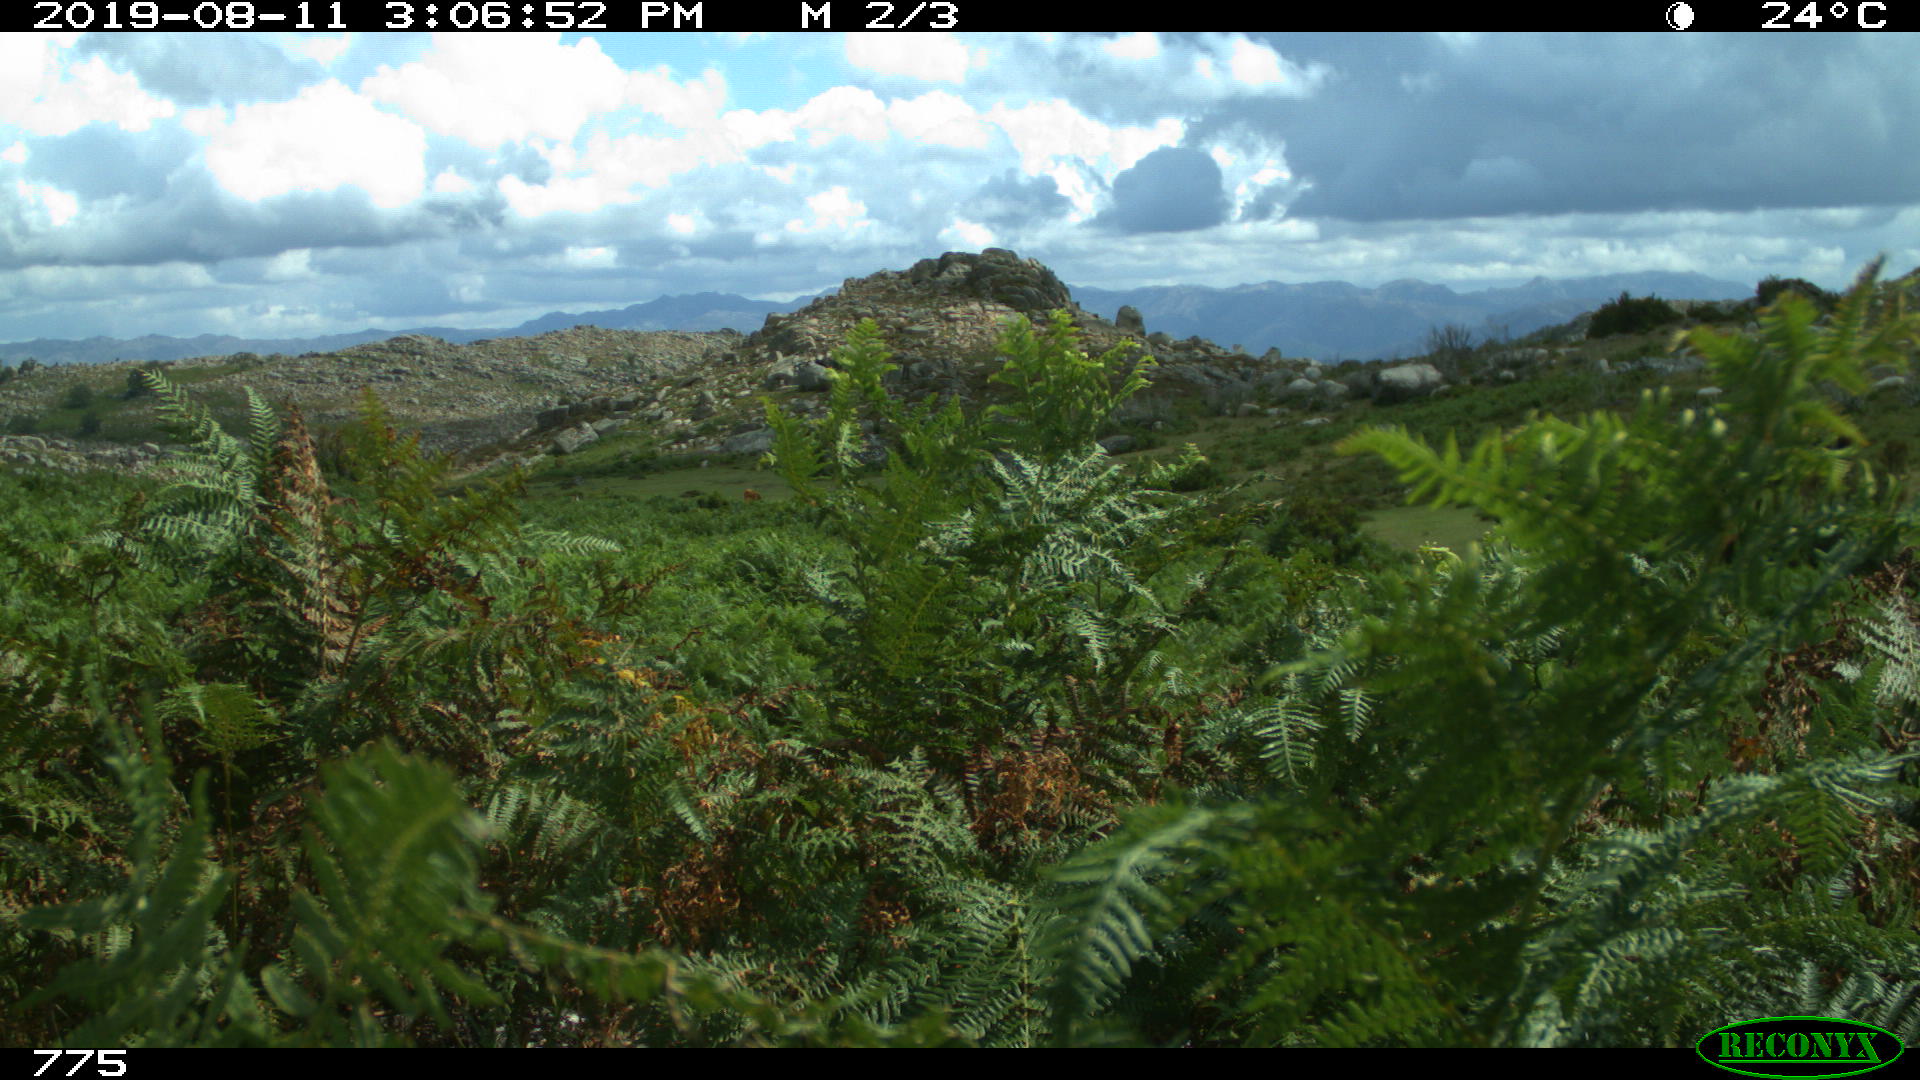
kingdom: Animalia
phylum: Chordata
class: Mammalia
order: Perissodactyla
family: Equidae
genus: Equus
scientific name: Equus caballus
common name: Horse
